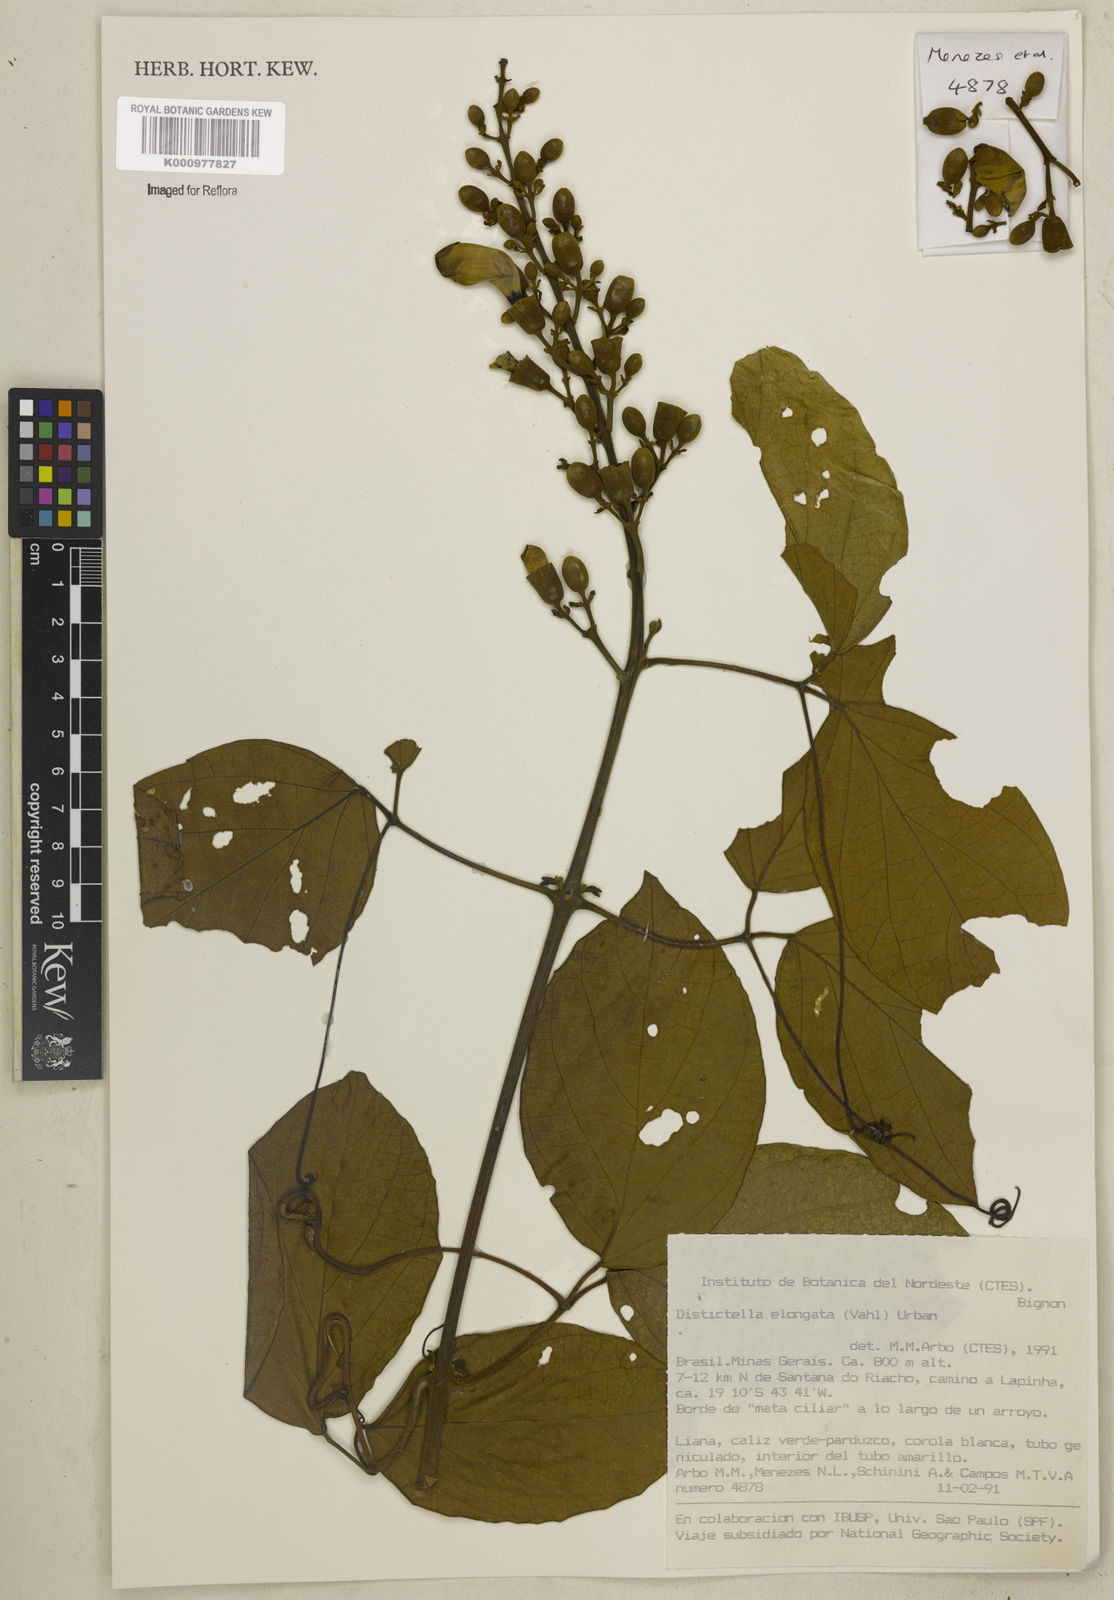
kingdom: Plantae
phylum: Tracheophyta
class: Magnoliopsida
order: Lamiales
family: Bignoniaceae
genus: Amphilophium
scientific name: Amphilophium elongatum
